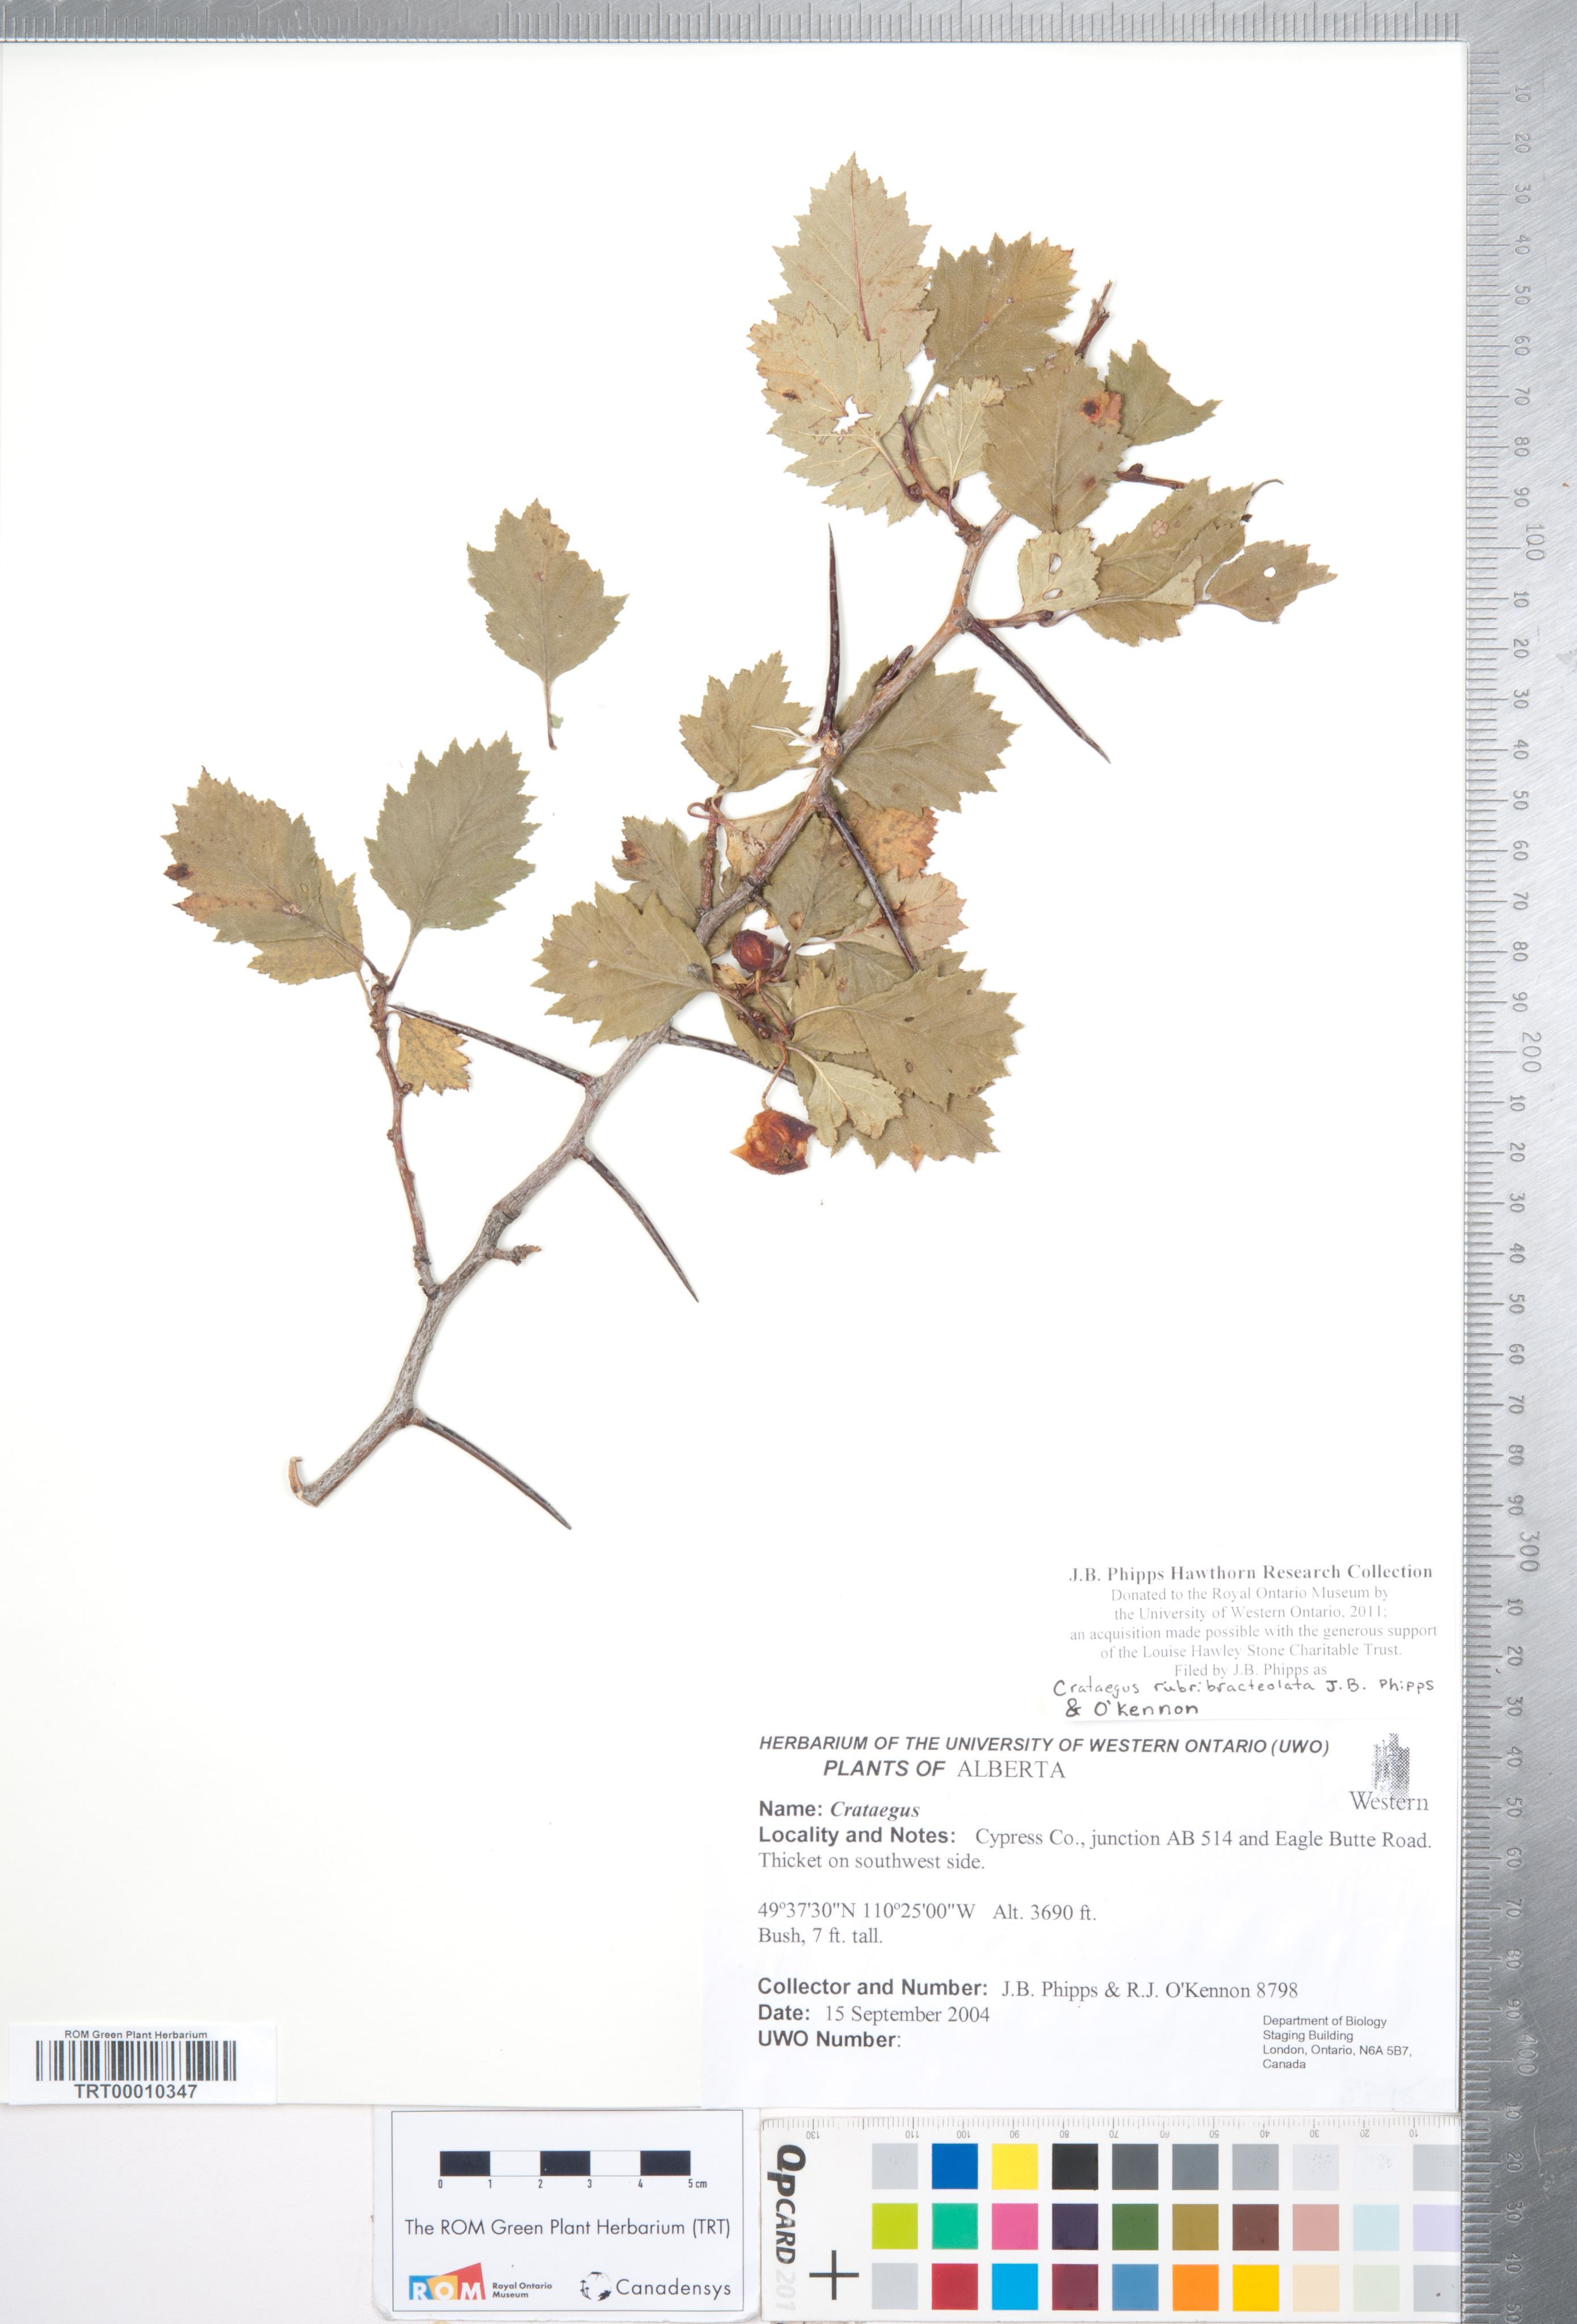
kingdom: Plantae
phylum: Tracheophyta
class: Magnoliopsida
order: Rosales
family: Rosaceae
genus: Crataegus
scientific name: Crataegus rubribracteolata
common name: Red bracteole hawthorn
